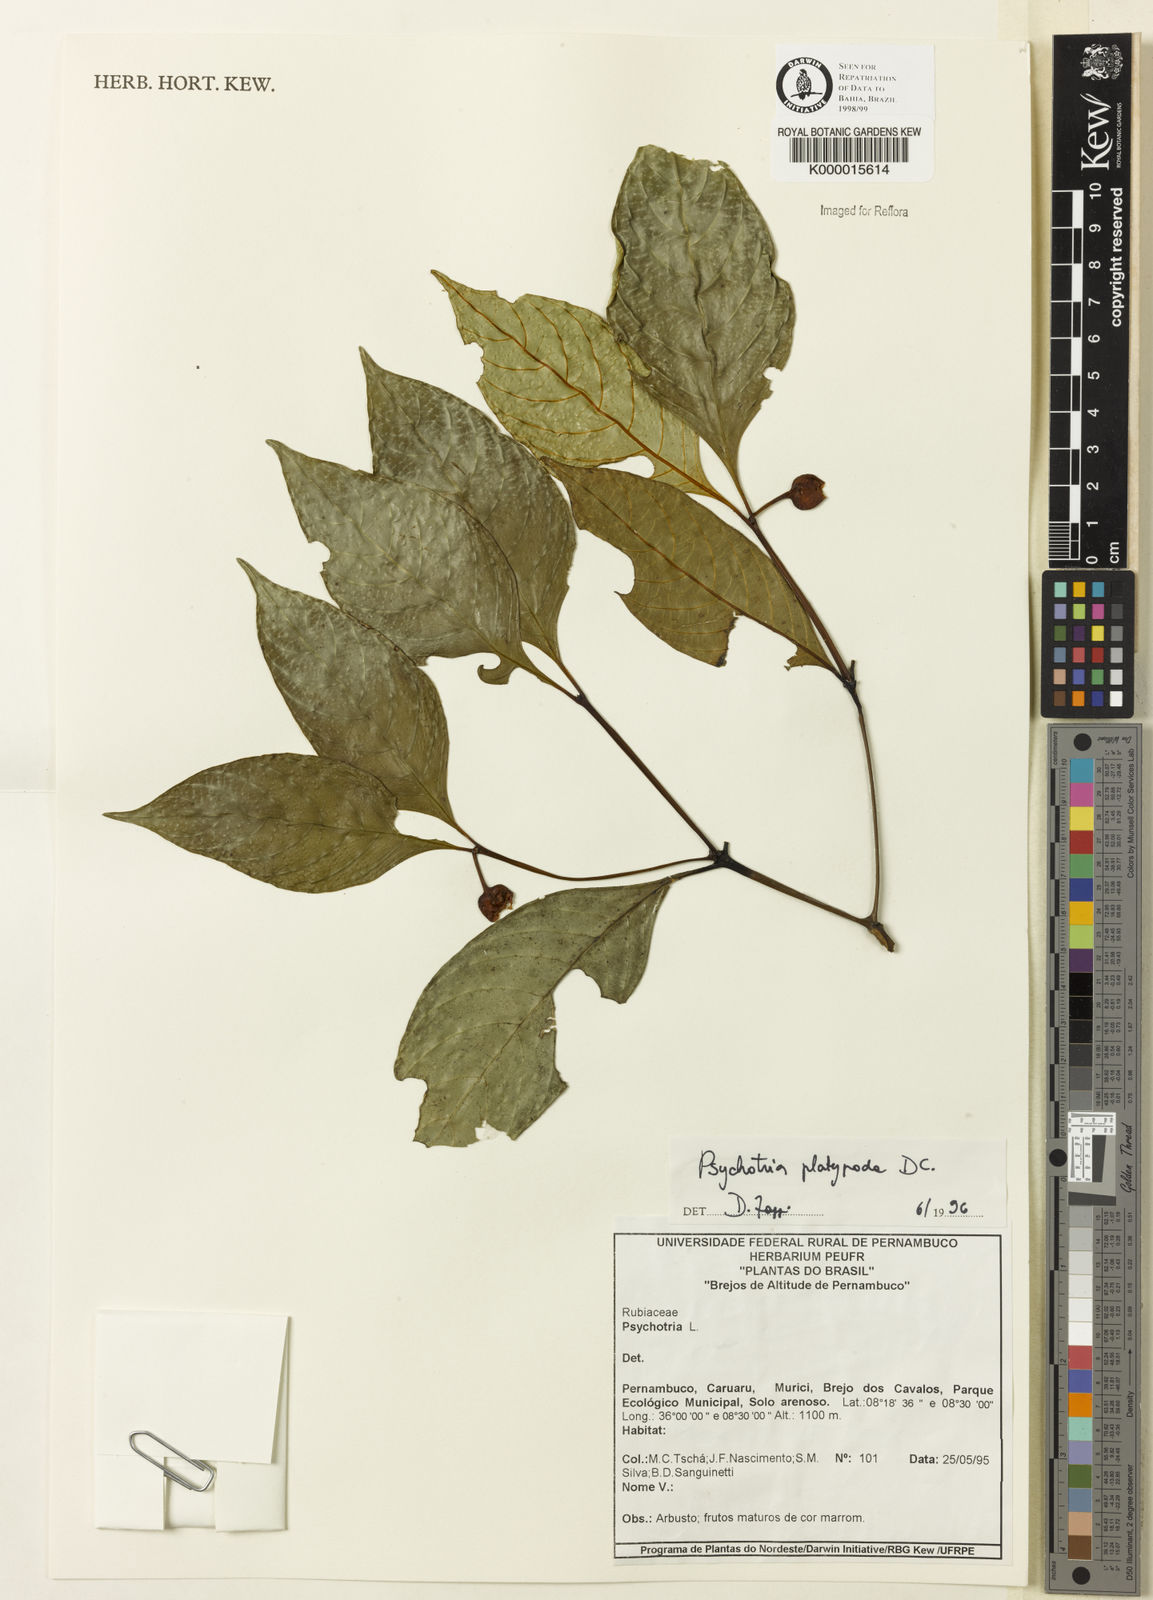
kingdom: Plantae
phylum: Tracheophyta
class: Magnoliopsida
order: Gentianales
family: Rubiaceae
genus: Palicourea
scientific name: Palicourea dichotoma
